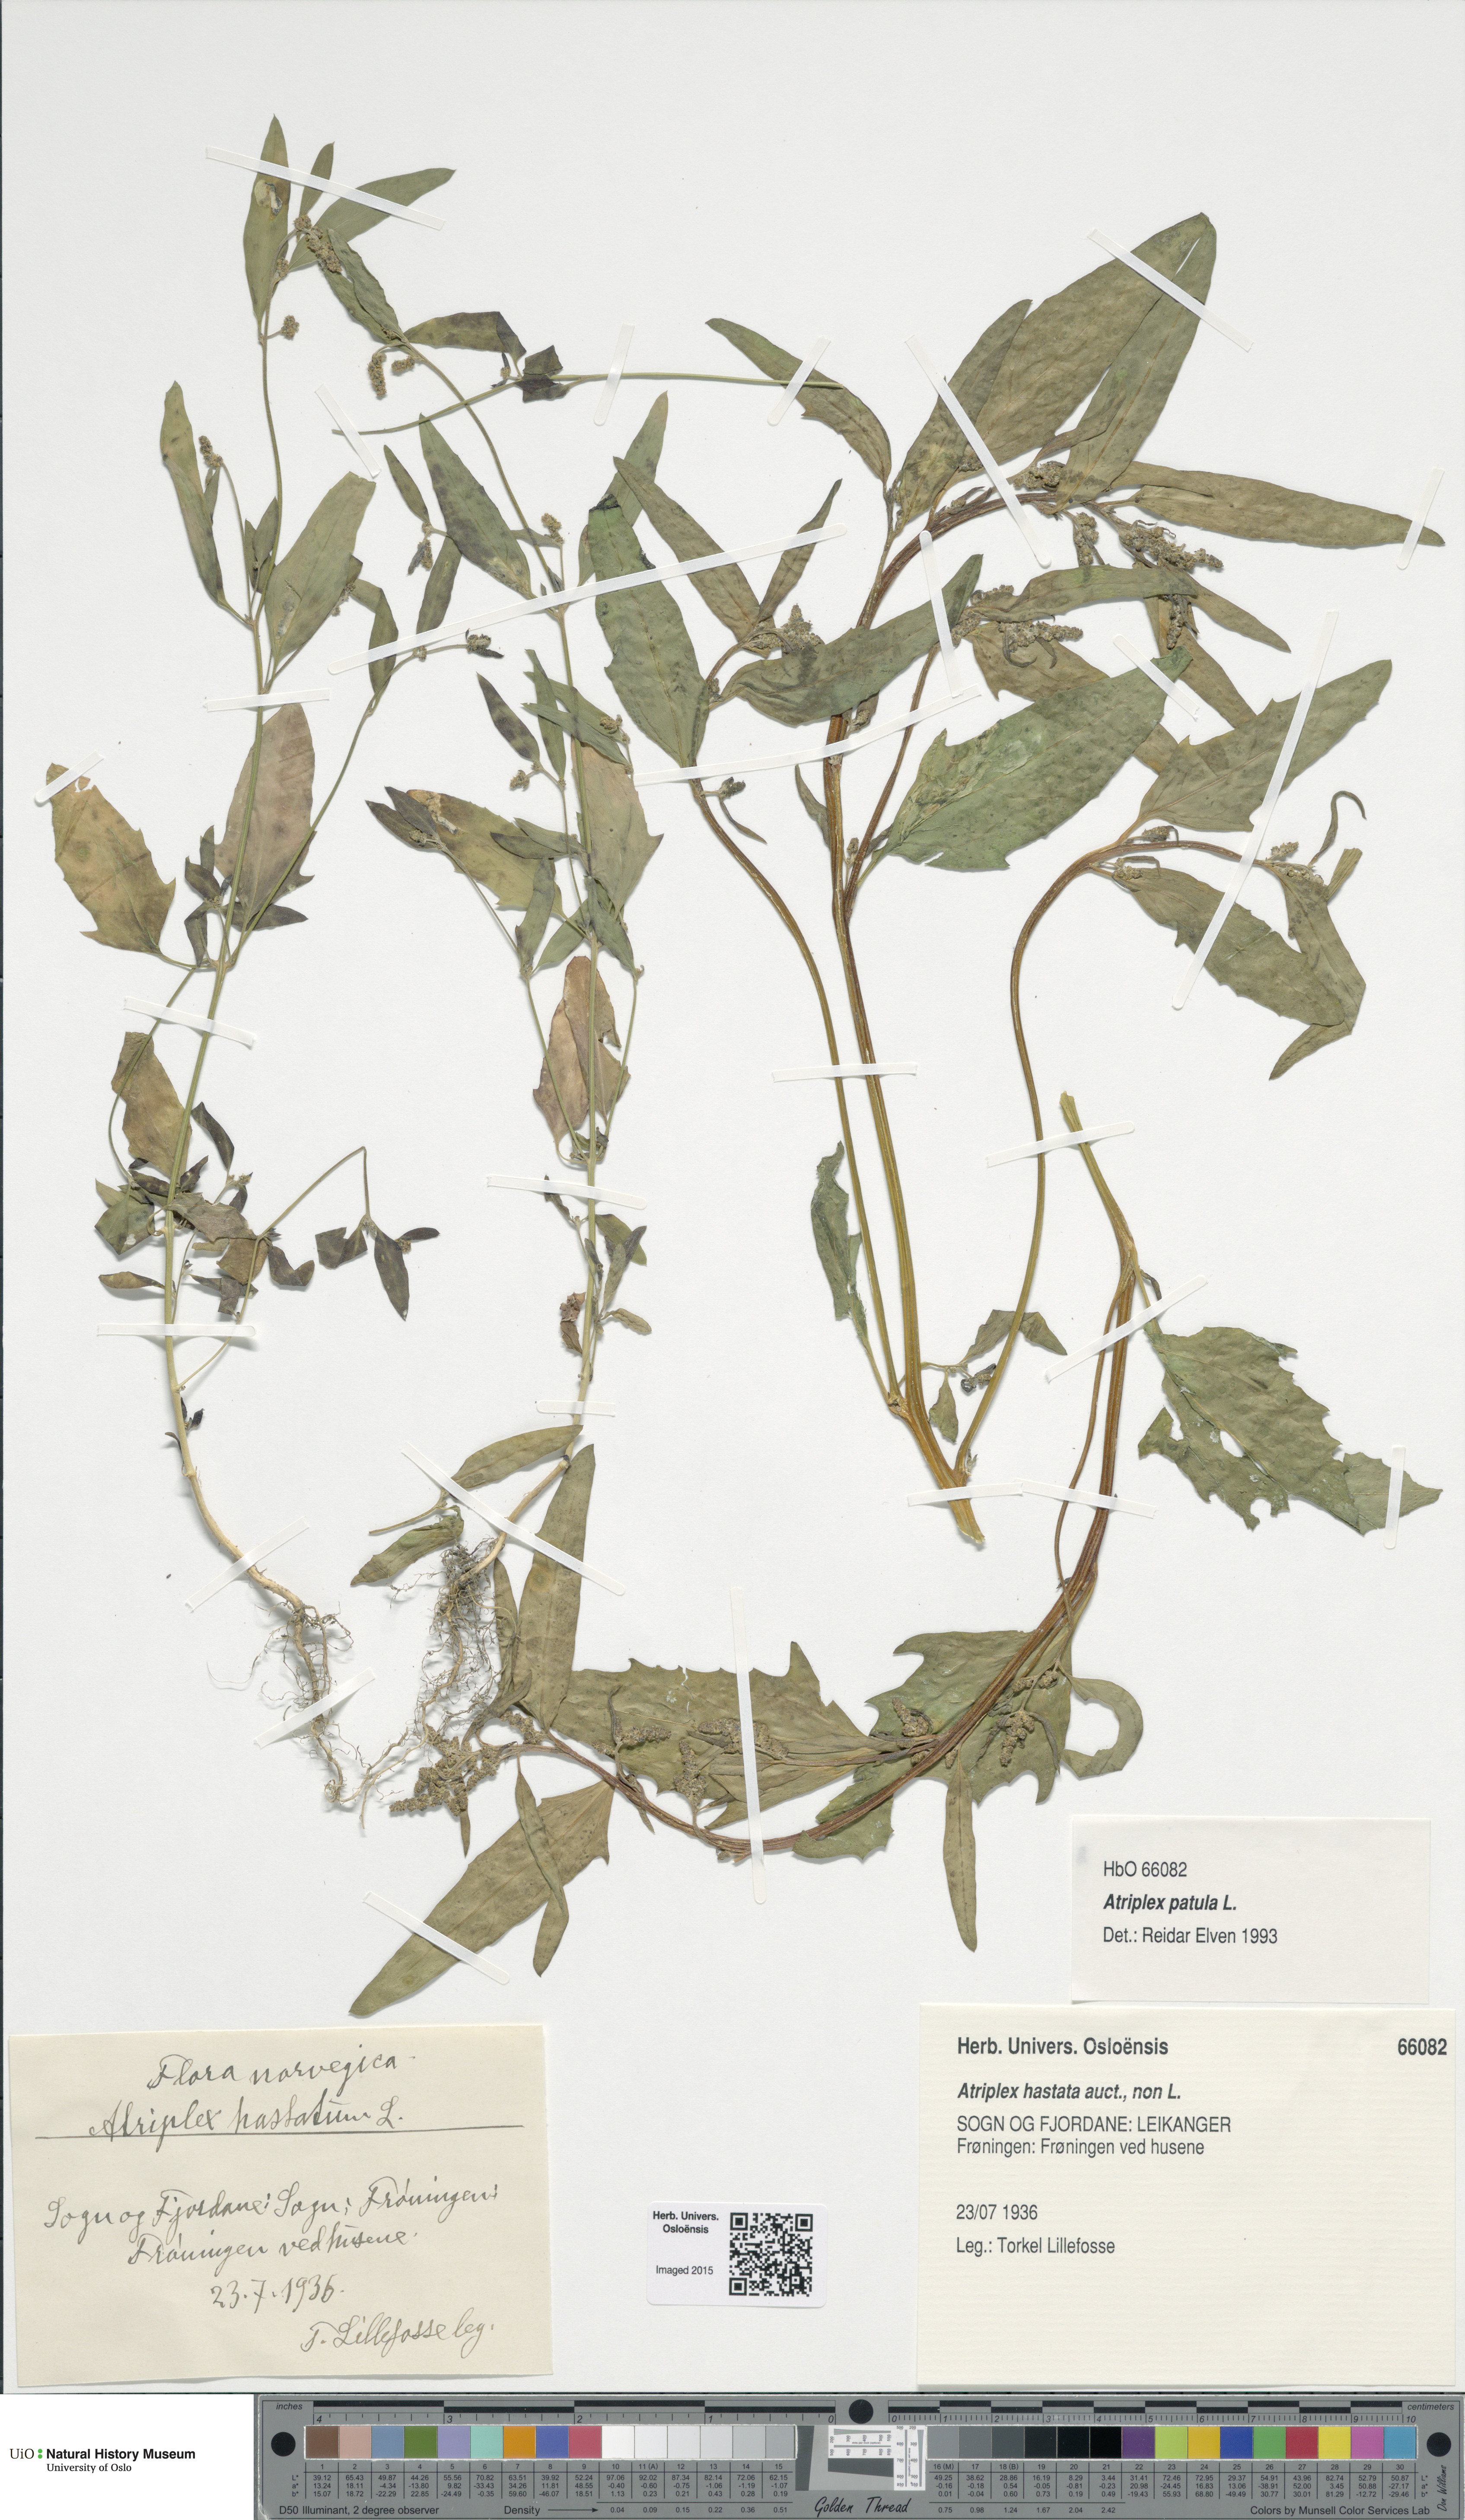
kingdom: Plantae
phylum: Tracheophyta
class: Magnoliopsida
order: Caryophyllales
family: Amaranthaceae
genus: Atriplex
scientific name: Atriplex patula
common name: Common orache
